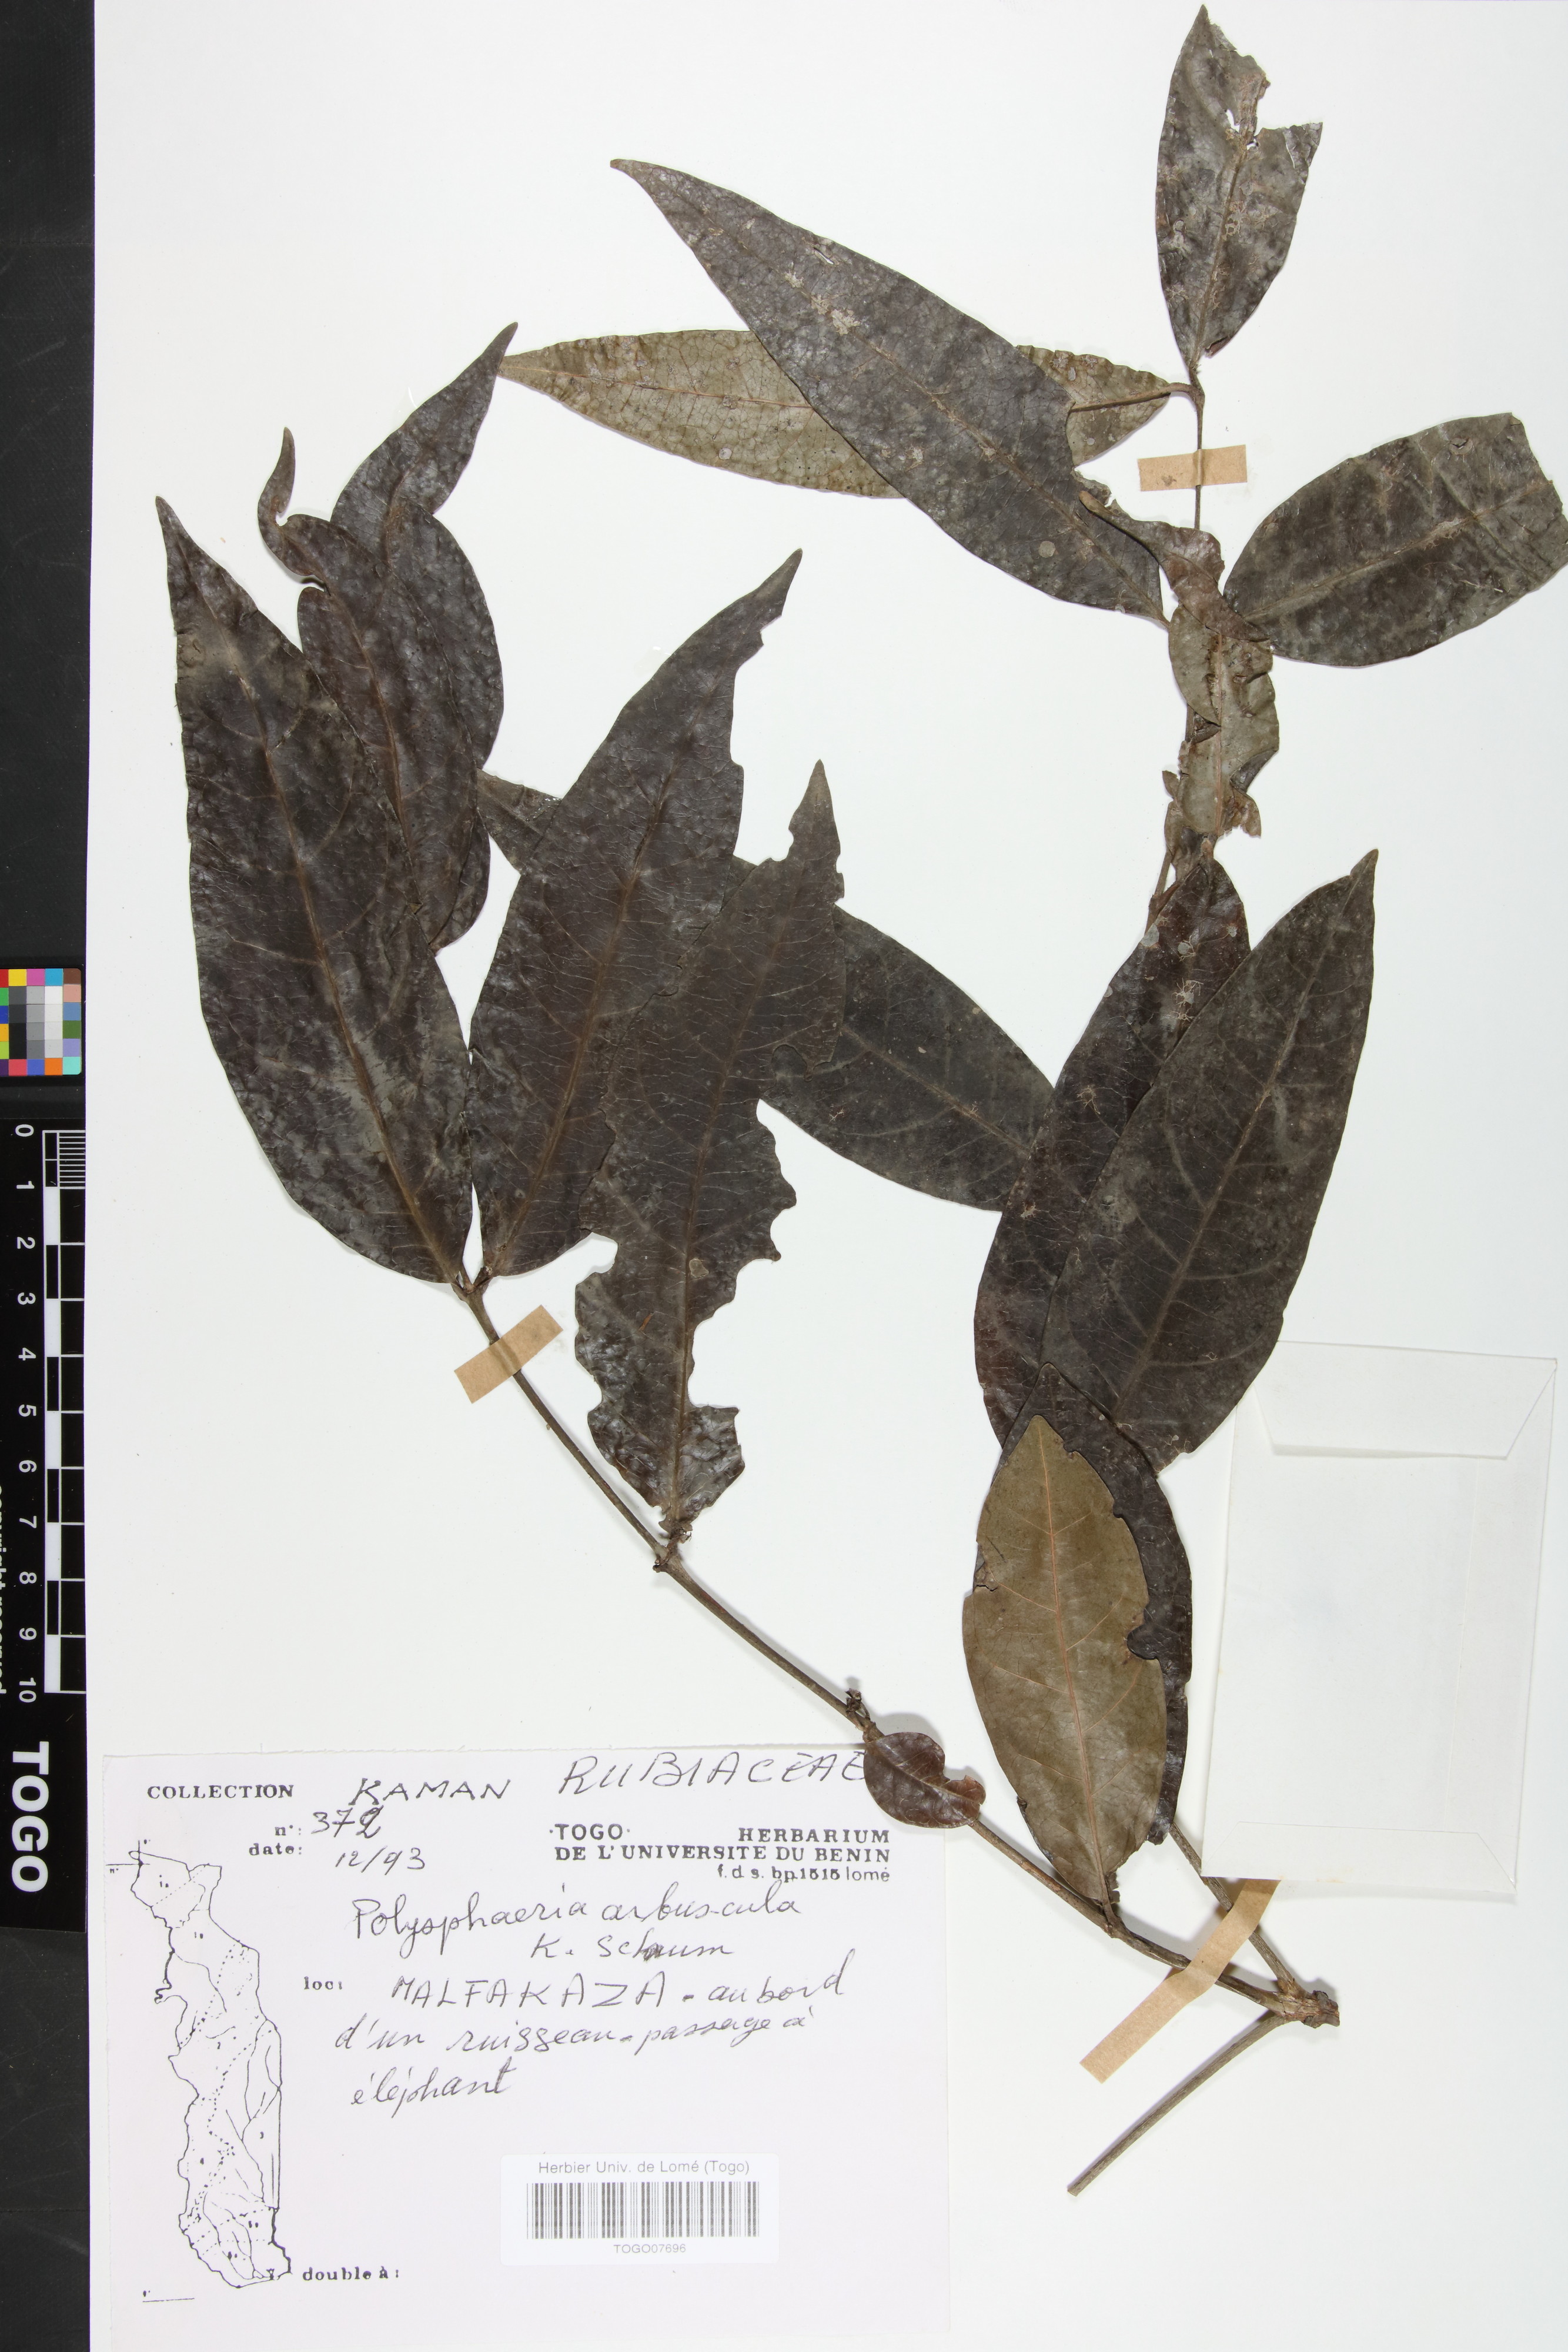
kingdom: Plantae
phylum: Tracheophyta
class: Magnoliopsida
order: Gentianales
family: Rubiaceae
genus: Polysphaeria
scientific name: Polysphaeria arbuscula
